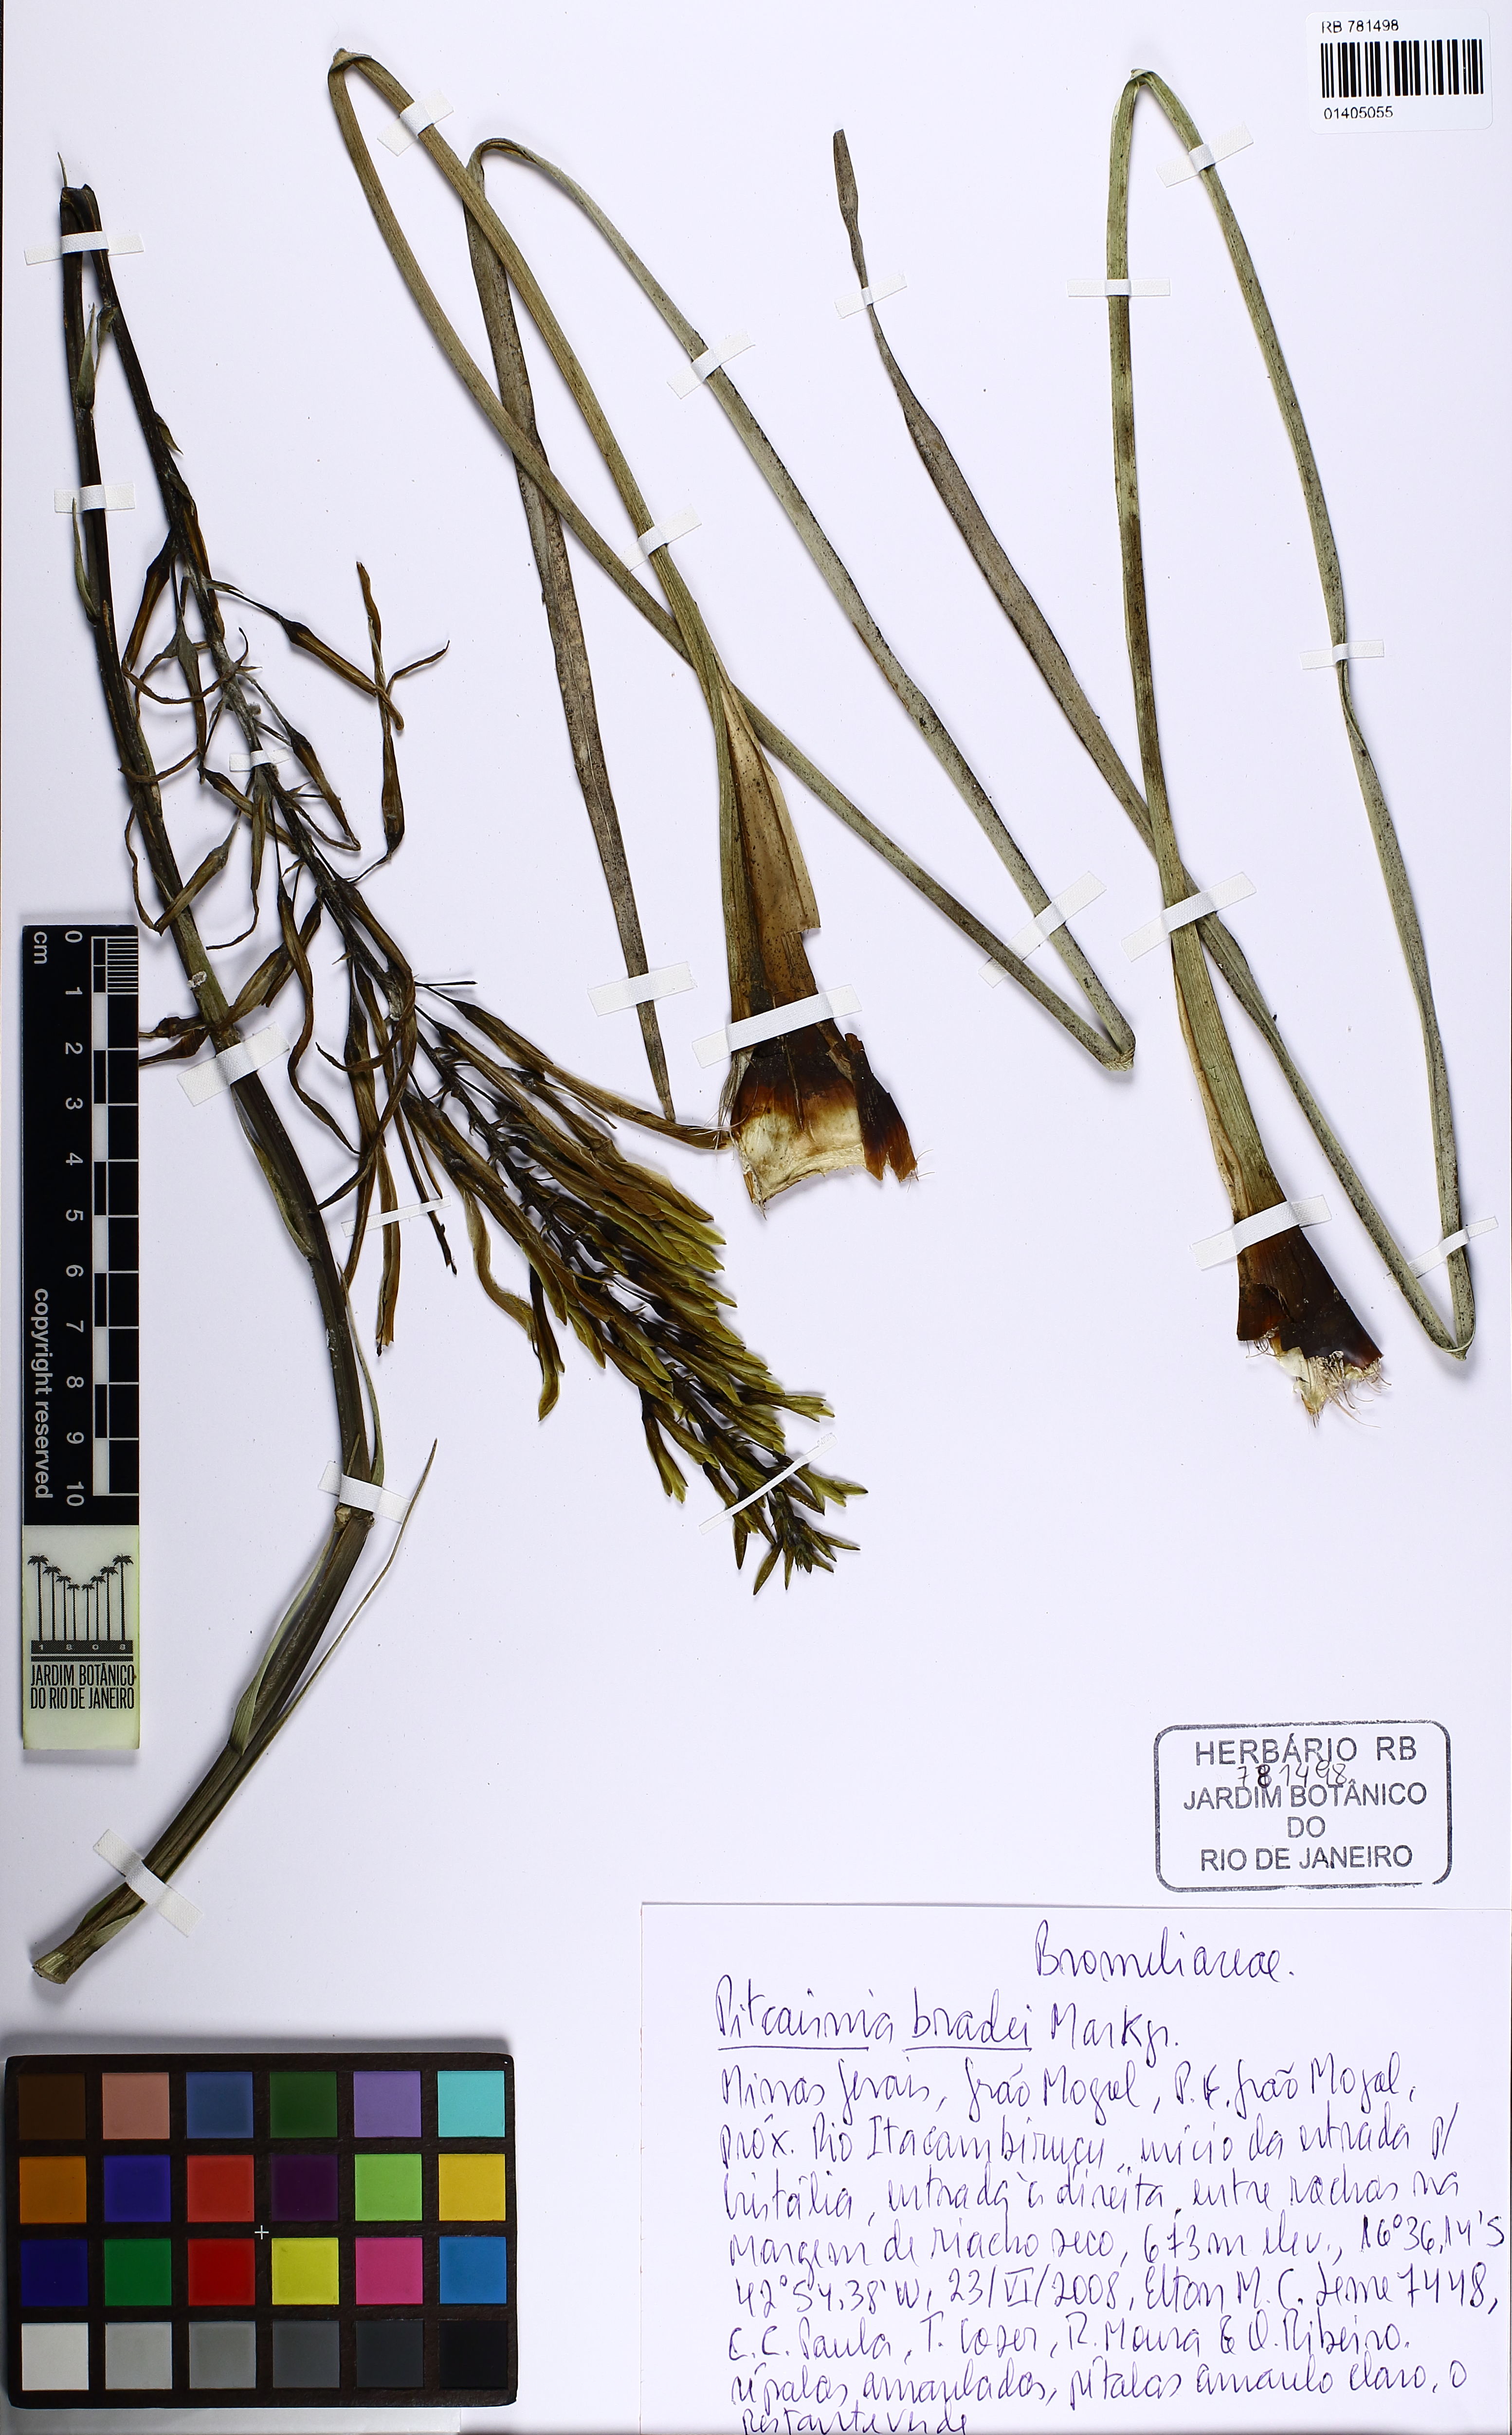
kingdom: Plantae
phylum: Tracheophyta
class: Liliopsida
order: Poales
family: Bromeliaceae
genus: Pitcairnia
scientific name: Pitcairnia bradei
